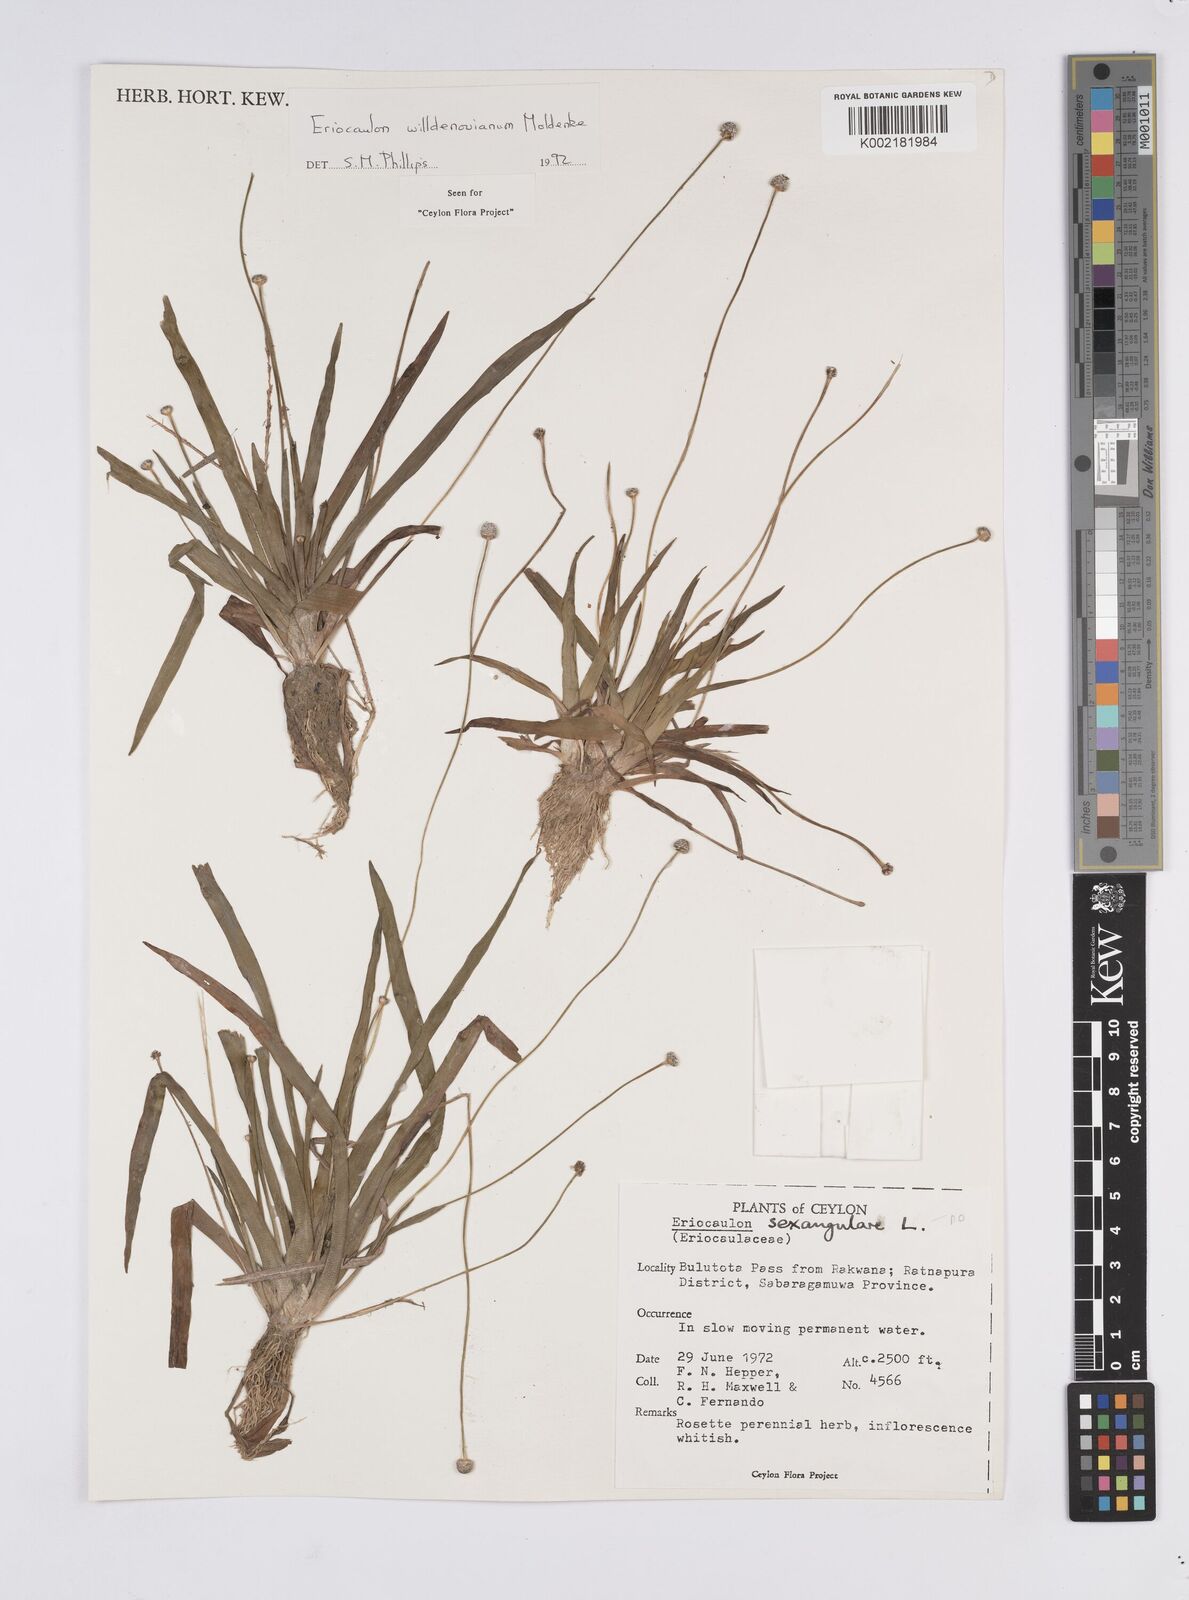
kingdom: Plantae
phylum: Tracheophyta
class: Liliopsida
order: Poales
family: Eriocaulaceae
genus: Eriocaulon
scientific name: Eriocaulon willdenovianum
